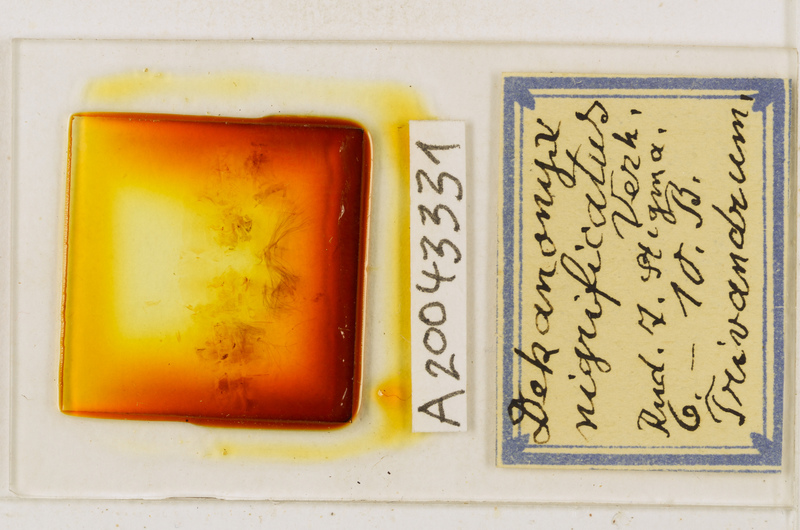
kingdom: Animalia
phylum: Arthropoda
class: Chilopoda
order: Scolopendromorpha
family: Scolopendridae
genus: Cormocephalus
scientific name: Cormocephalus nigrificatus
